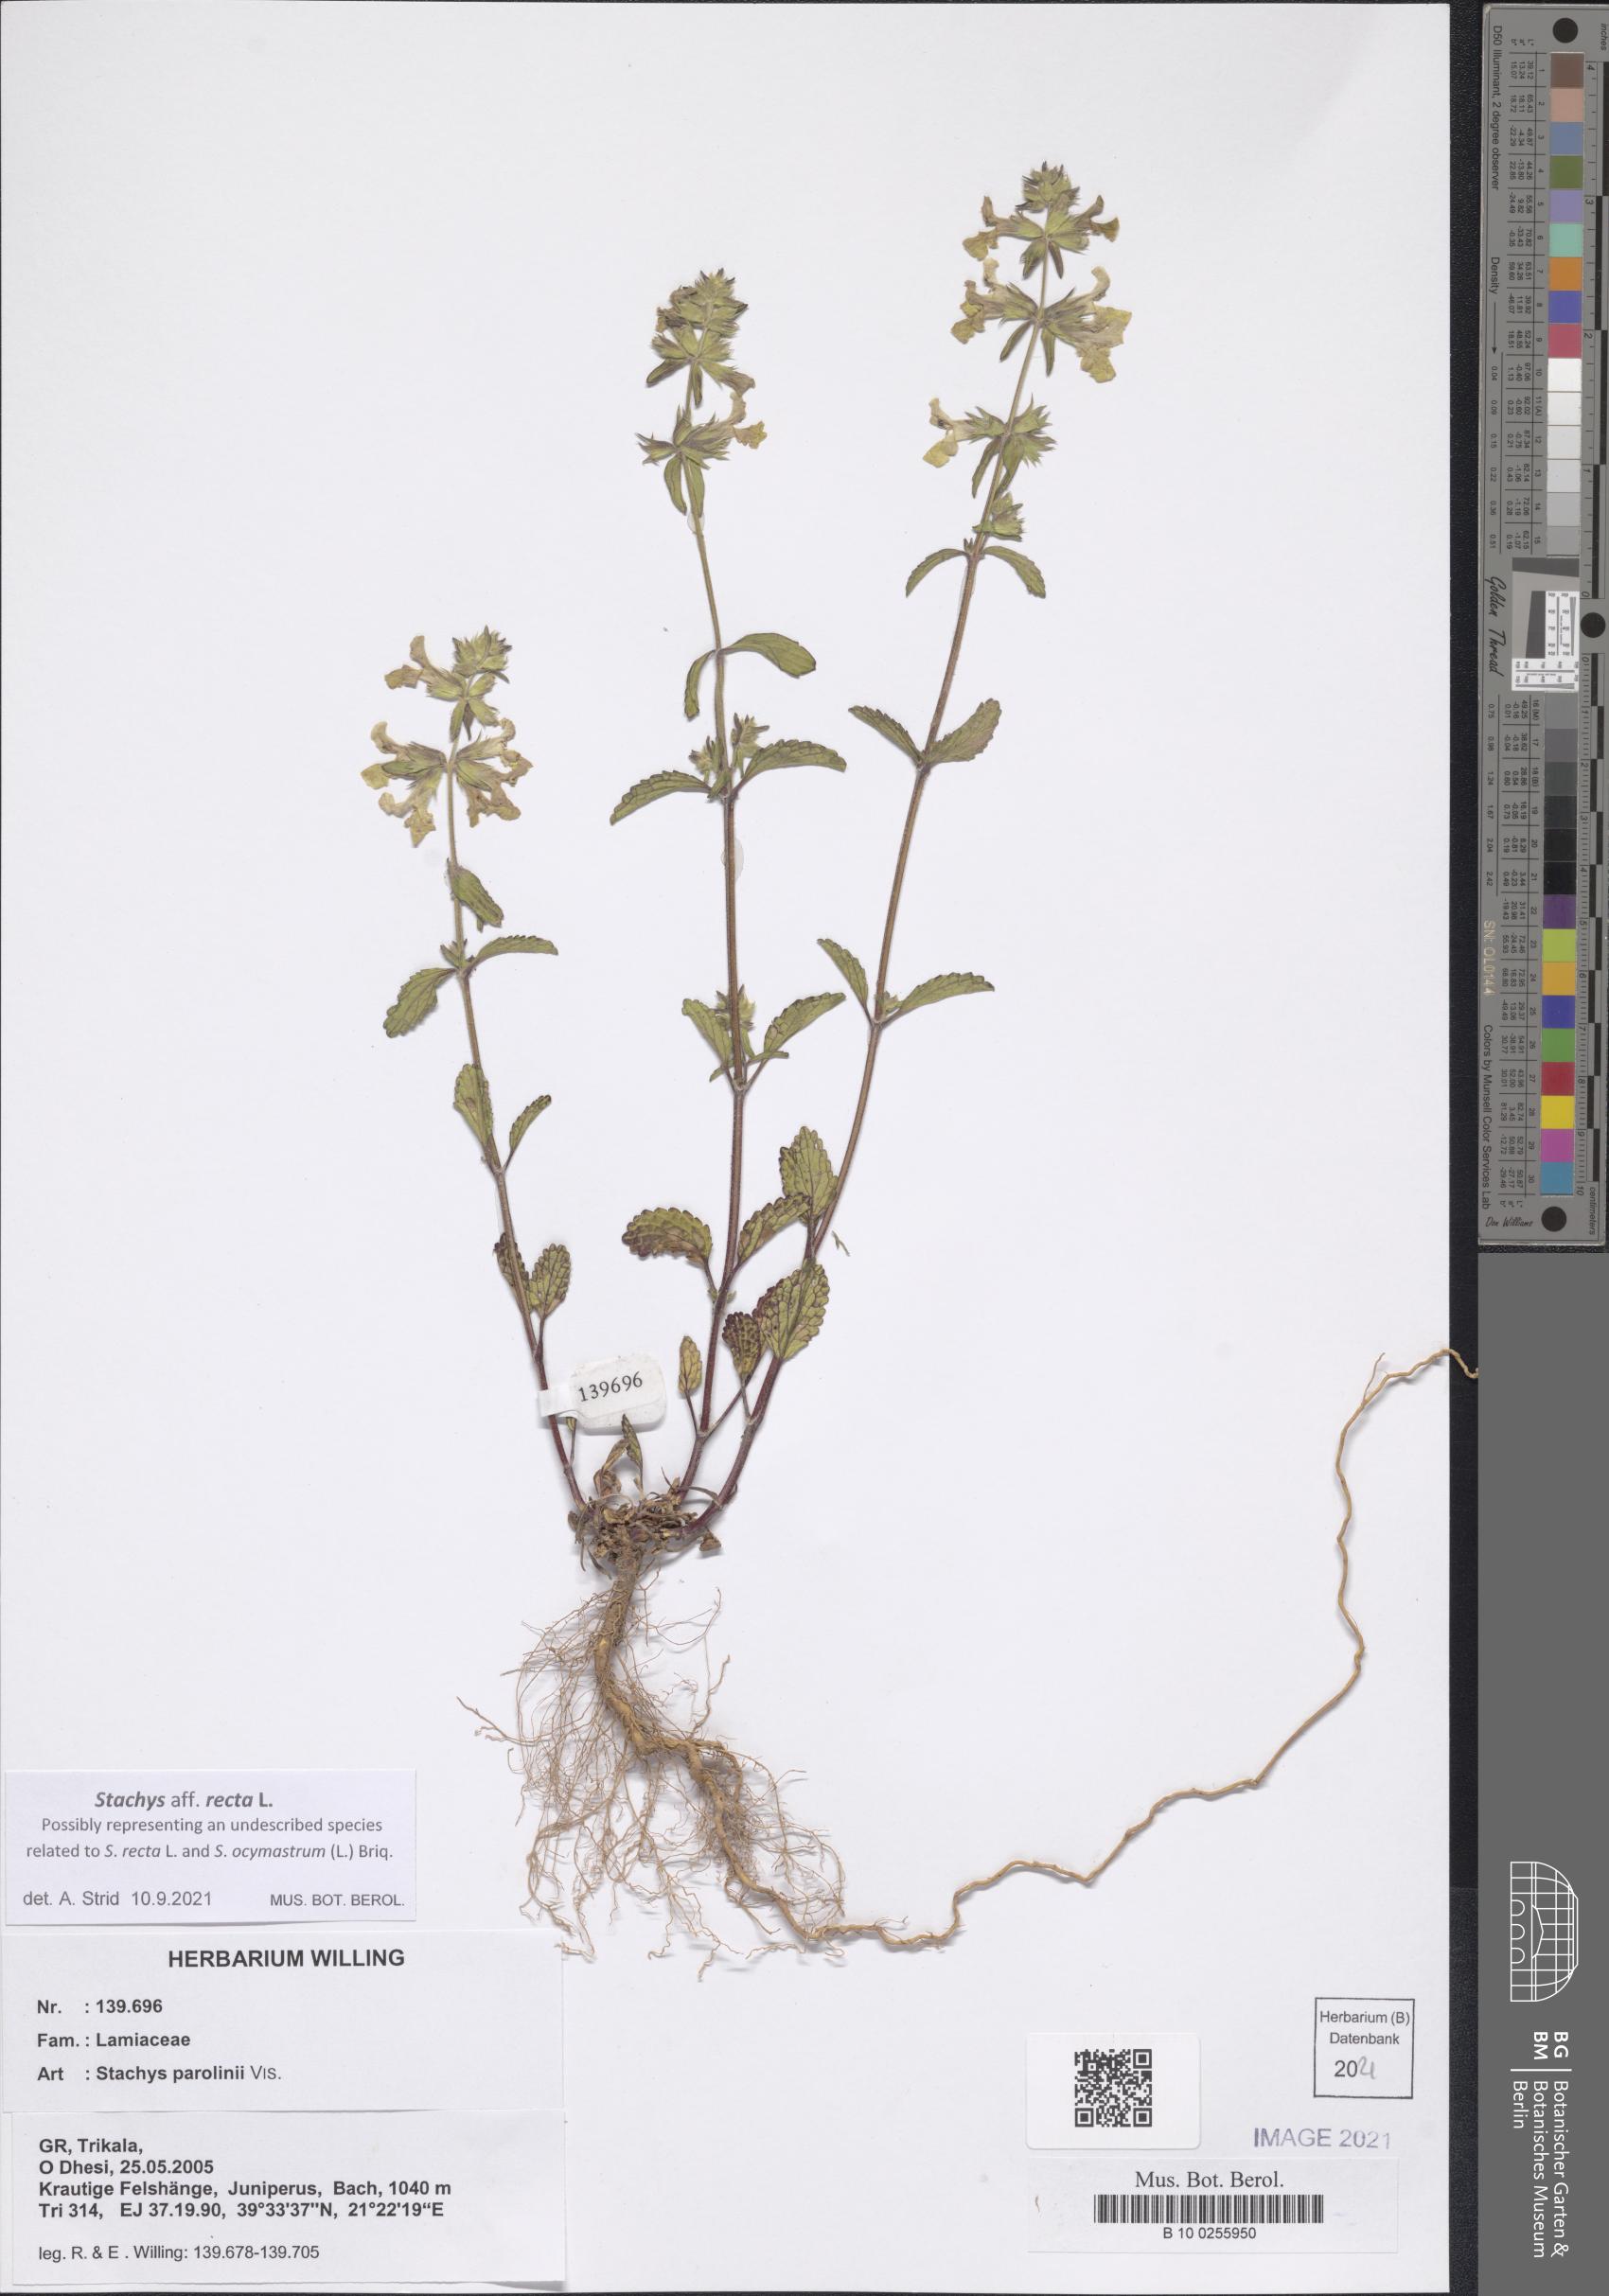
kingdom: Plantae
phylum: Tracheophyta
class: Magnoliopsida
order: Lamiales
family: Lamiaceae
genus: Stachys
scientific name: Stachys recta
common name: Perennial yellow-woundwort
